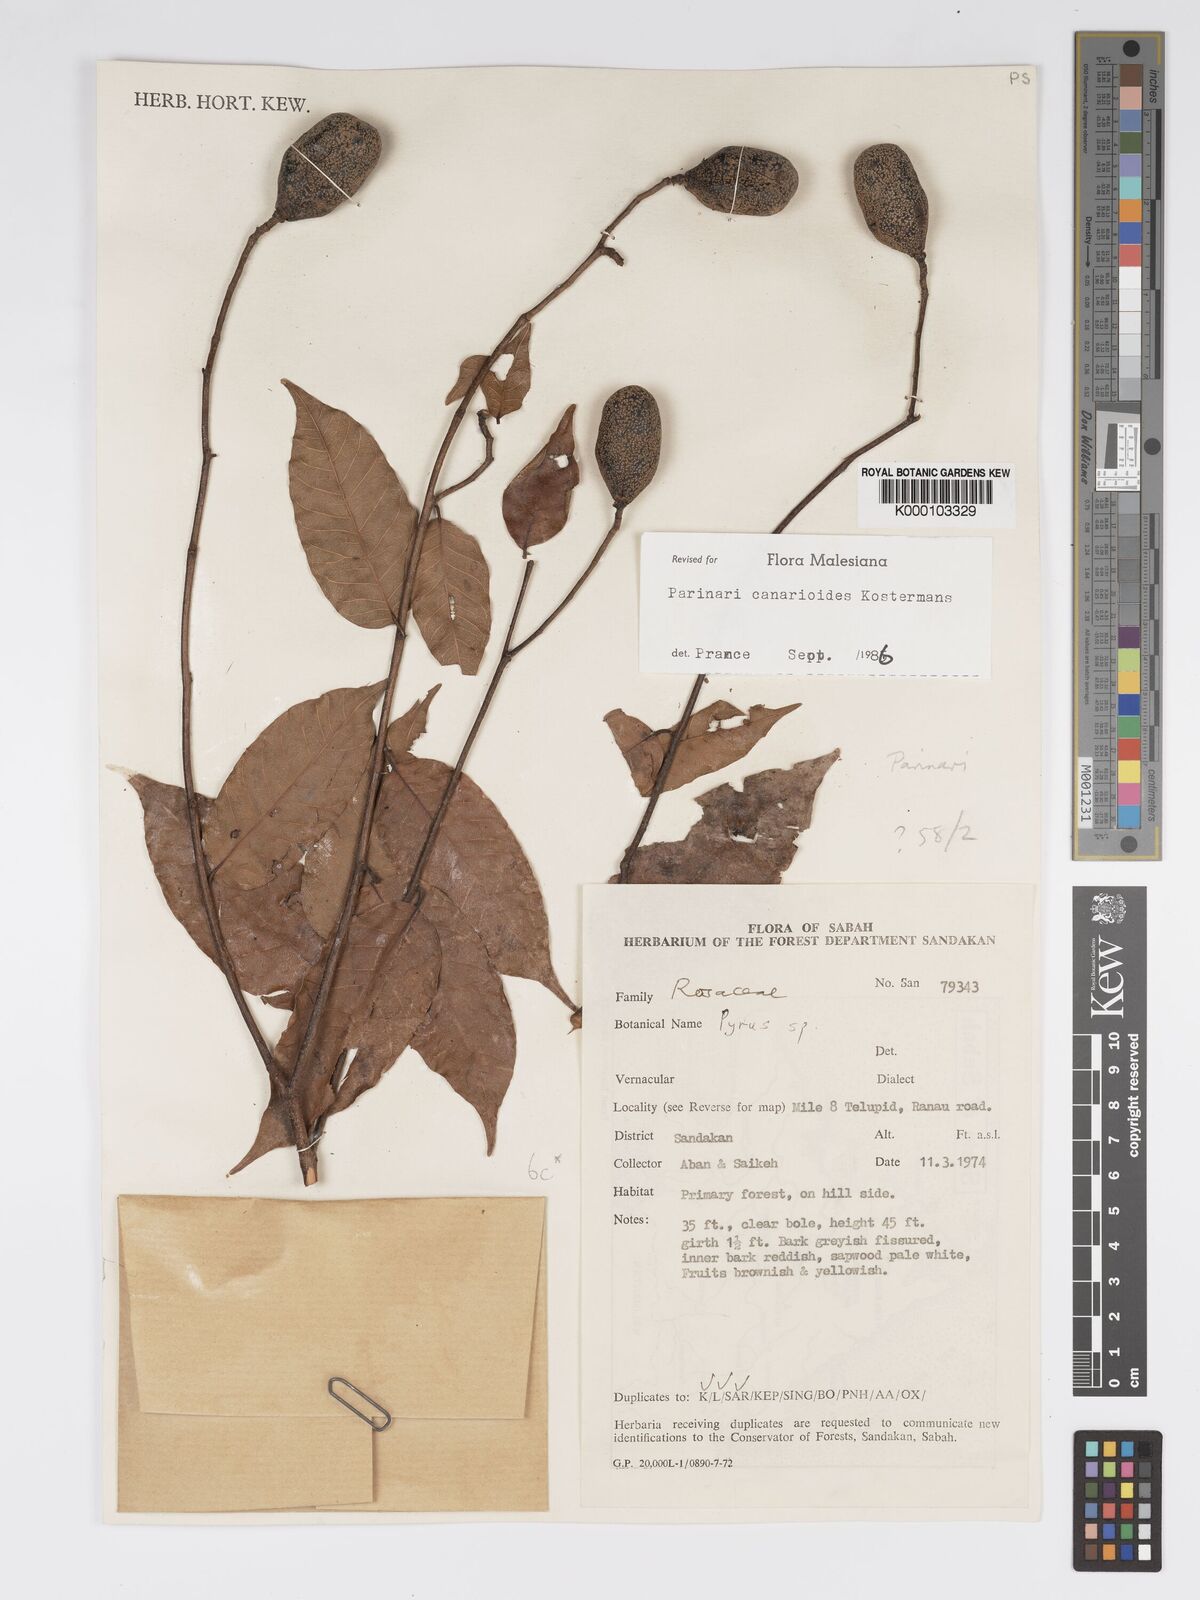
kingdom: Plantae
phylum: Tracheophyta
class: Magnoliopsida
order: Malpighiales
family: Chrysobalanaceae
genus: Parinari
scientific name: Parinari canarioides
